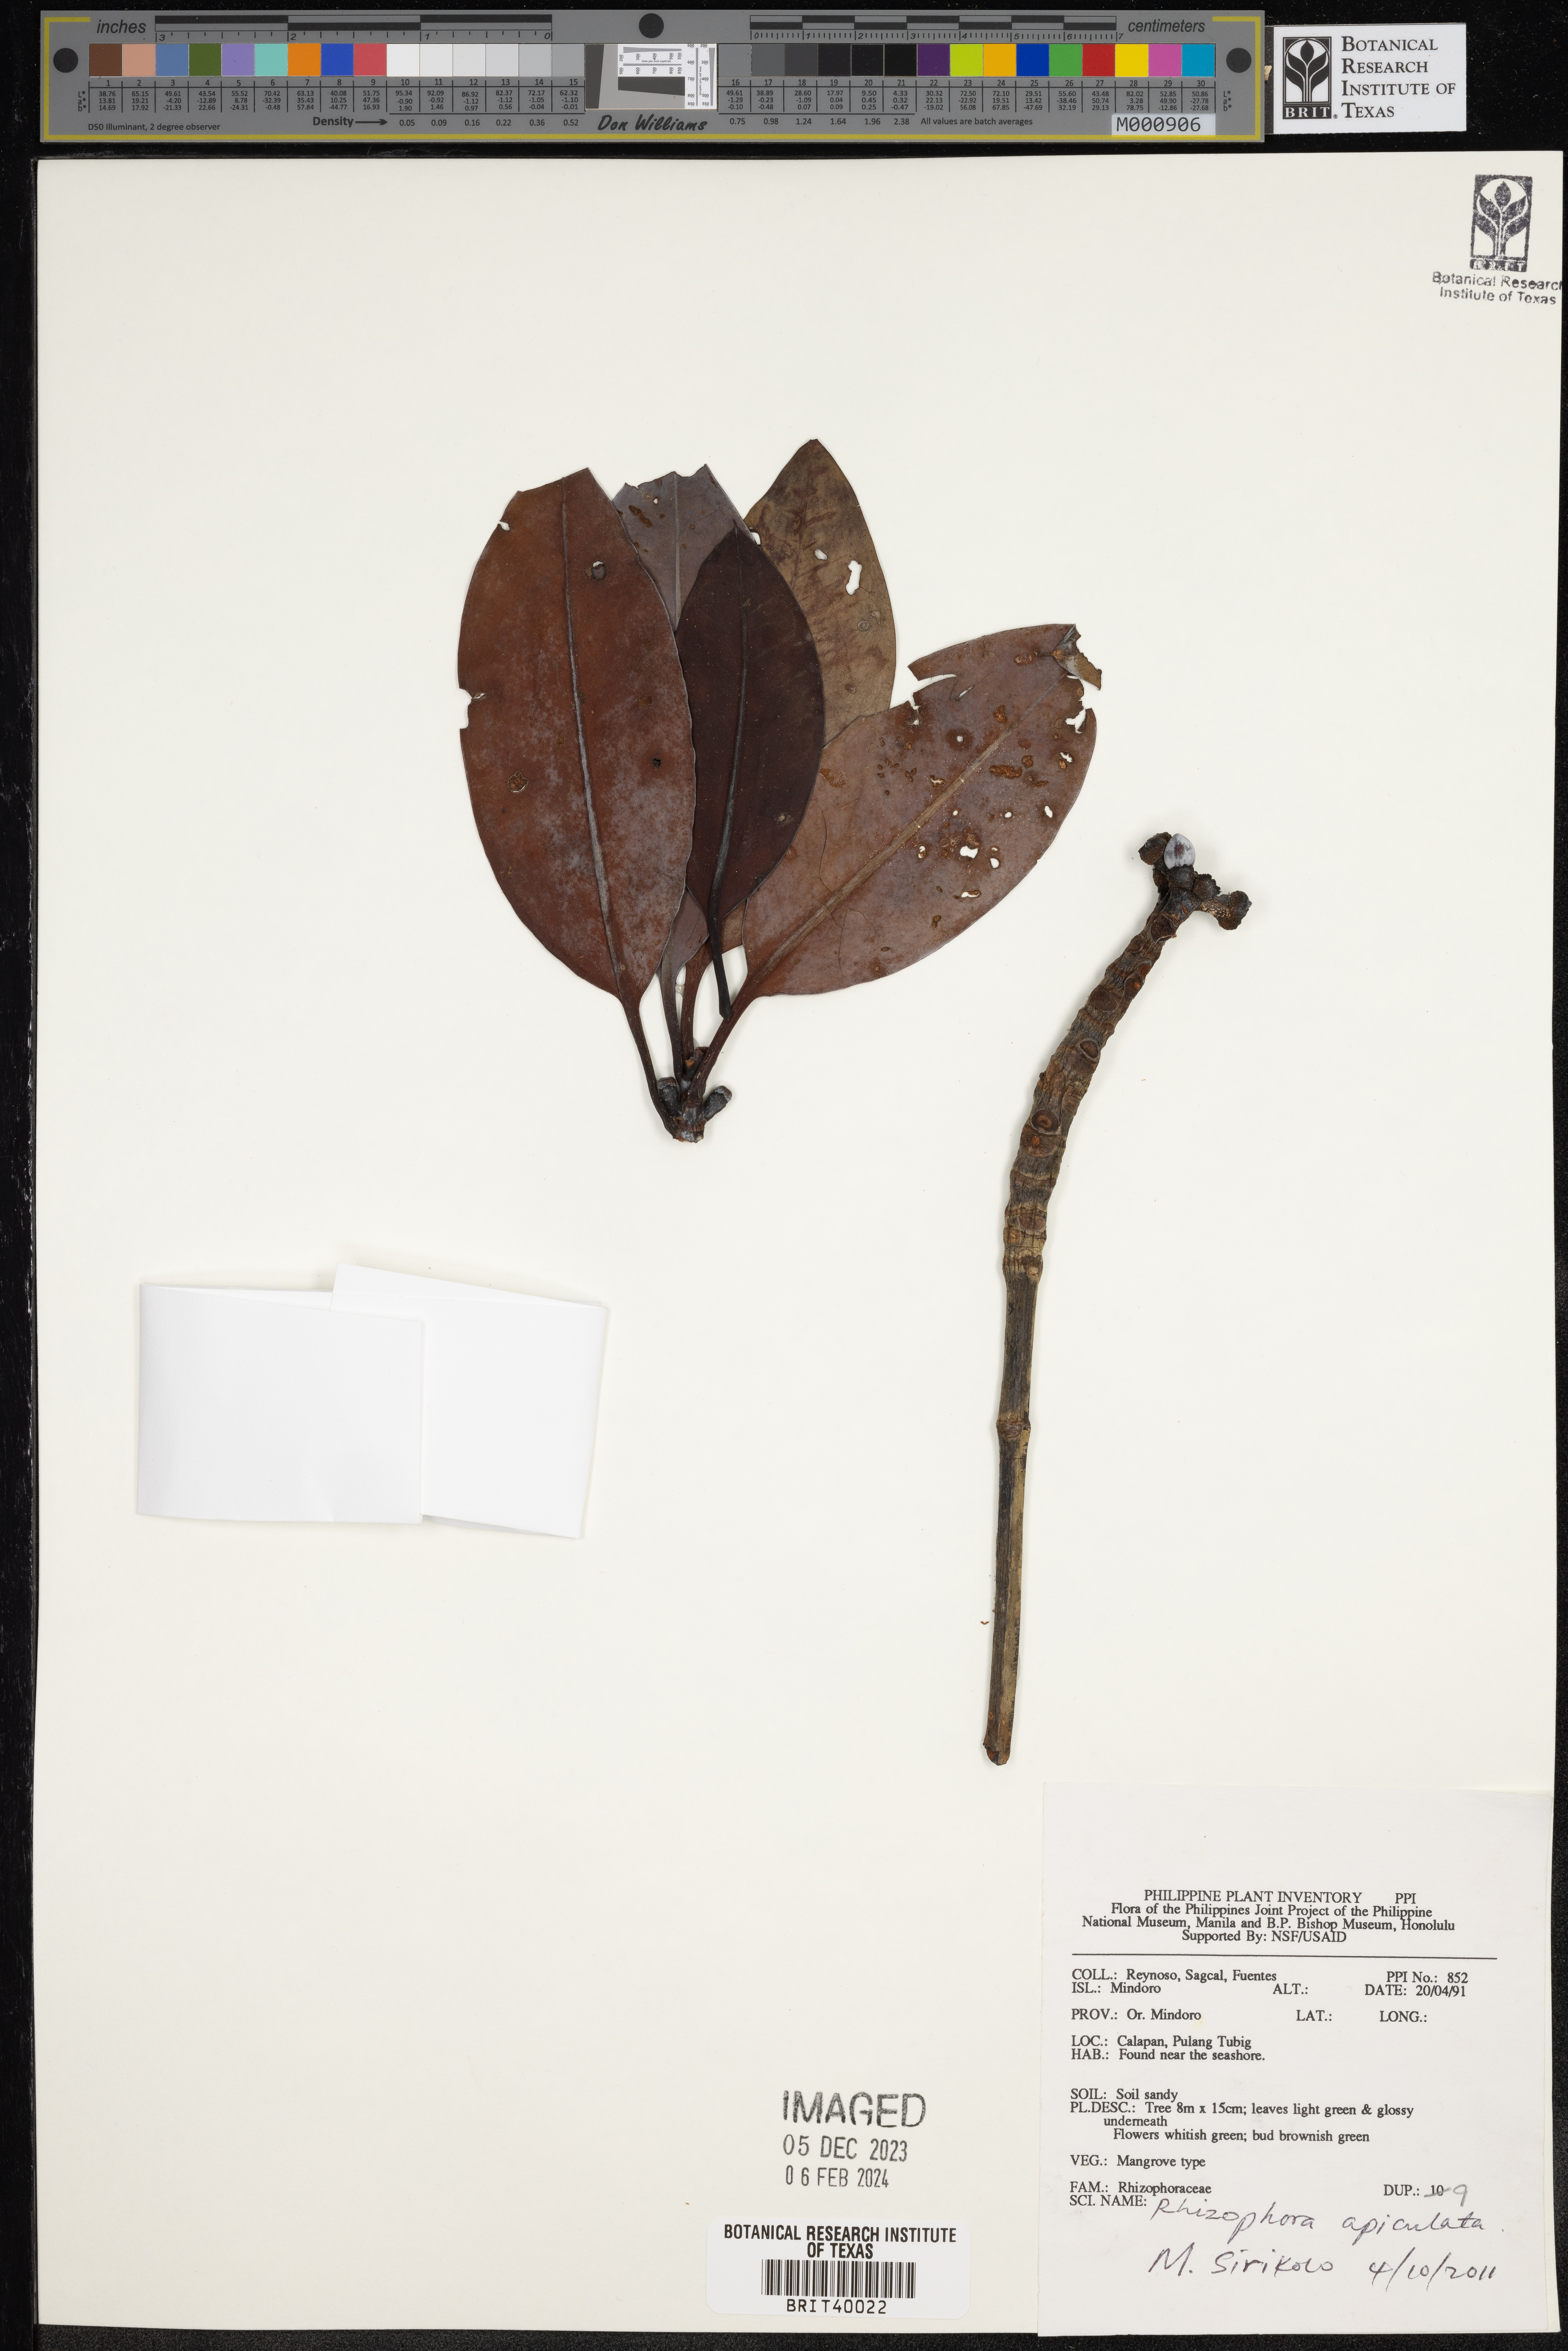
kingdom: Plantae
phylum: Tracheophyta
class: Magnoliopsida
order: Malpighiales
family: Rhizophoraceae
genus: Rhizophora
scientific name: Rhizophora apiculata
